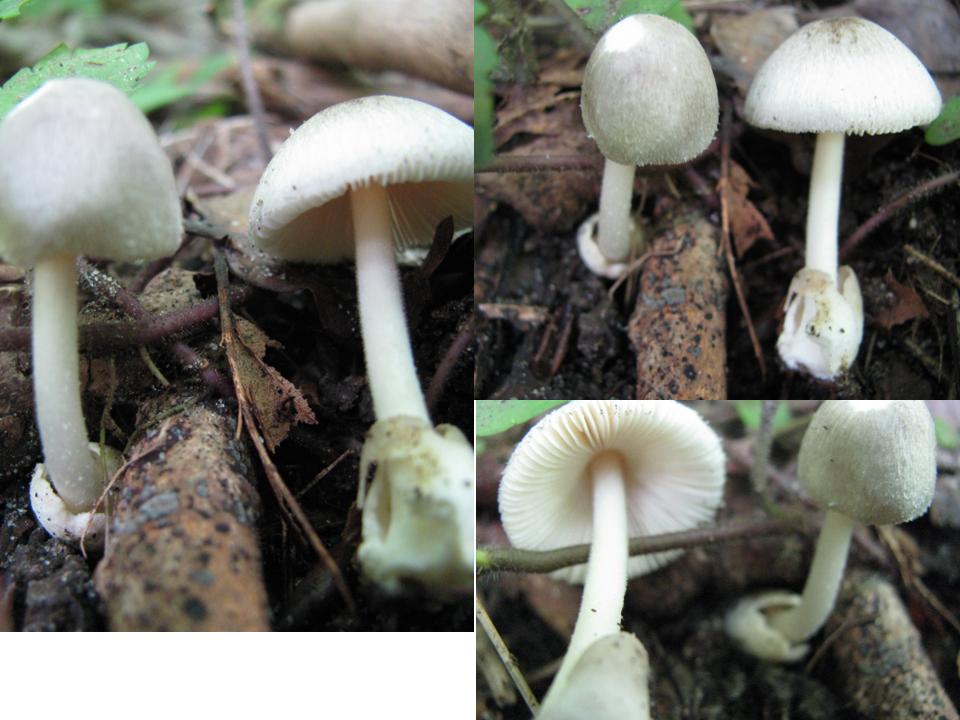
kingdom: Fungi
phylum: Basidiomycota
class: Agaricomycetes
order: Agaricales
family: Pluteaceae
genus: Volvariella
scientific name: Volvariella murinella
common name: musegrå posesvamp
